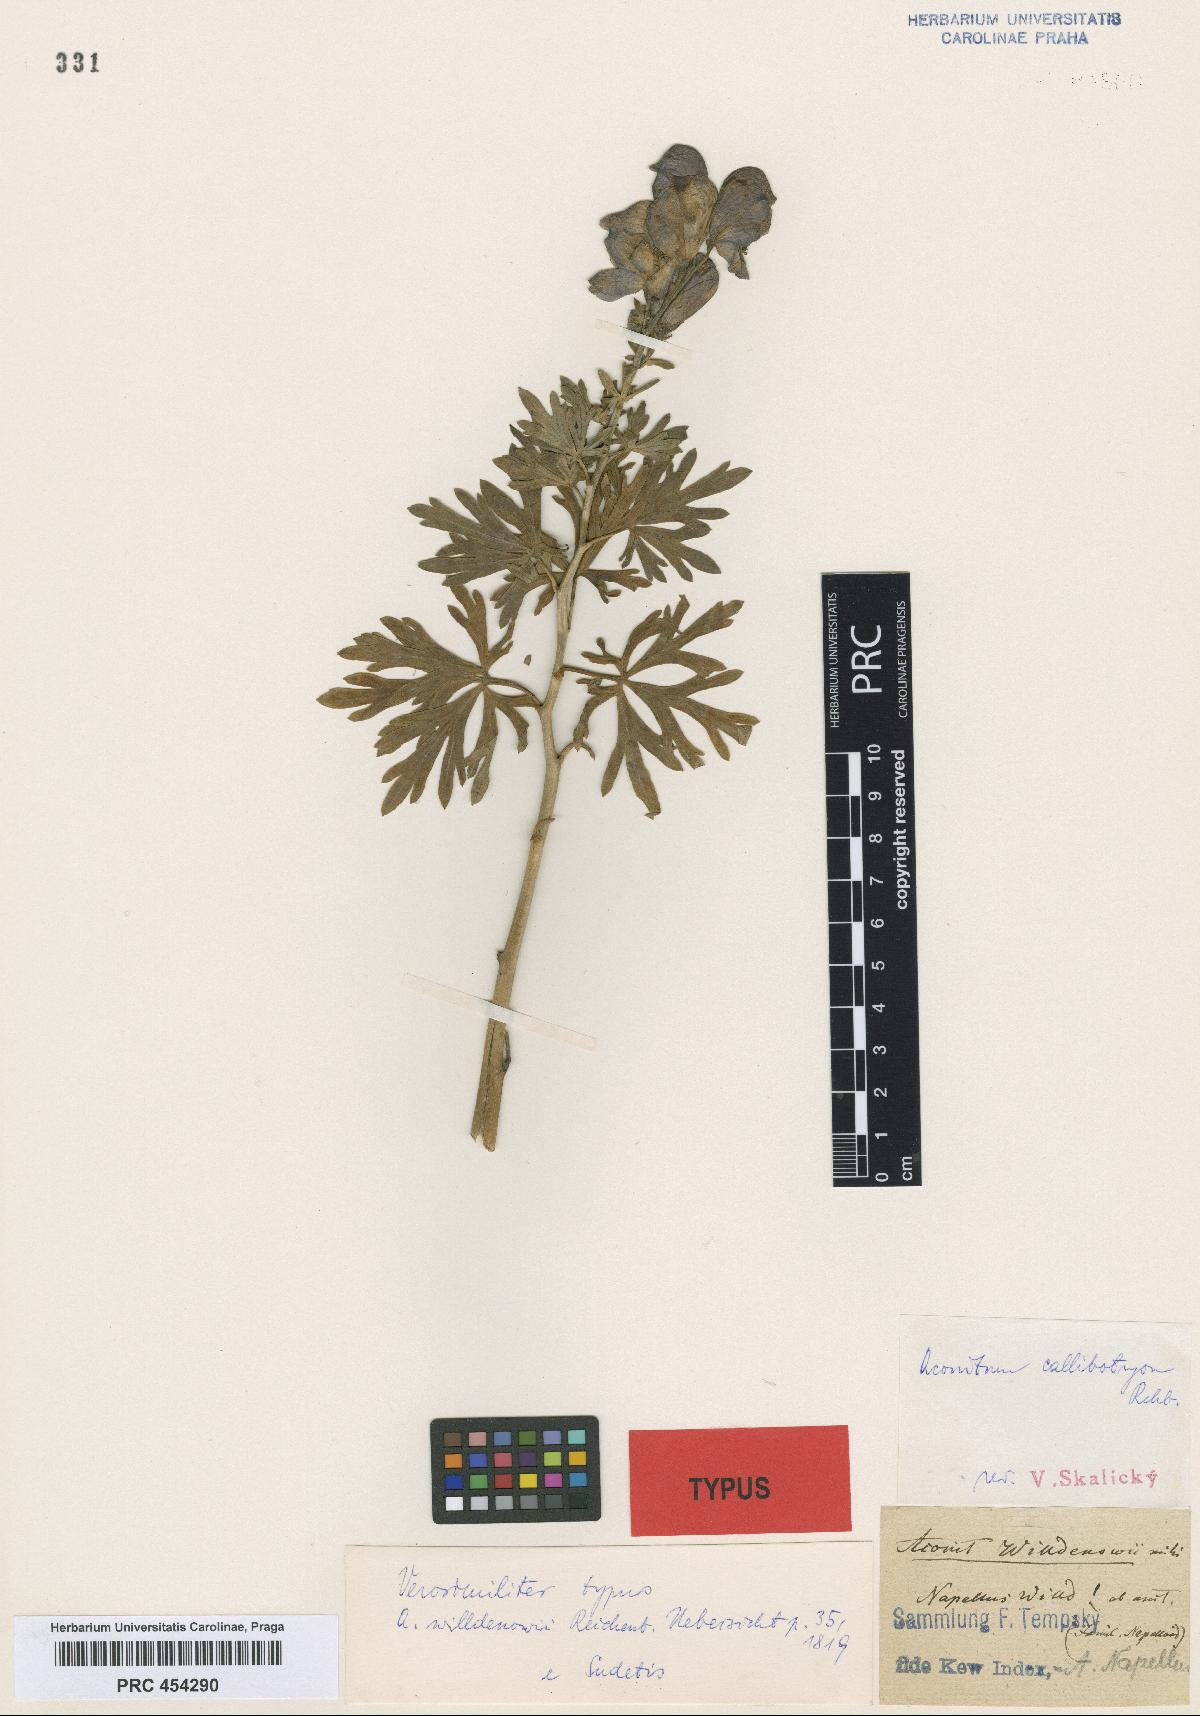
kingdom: Plantae
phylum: Tracheophyta
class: Magnoliopsida
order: Ranunculales
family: Ranunculaceae
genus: Aconitum
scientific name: Aconitum napellus
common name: Garden monkshood
